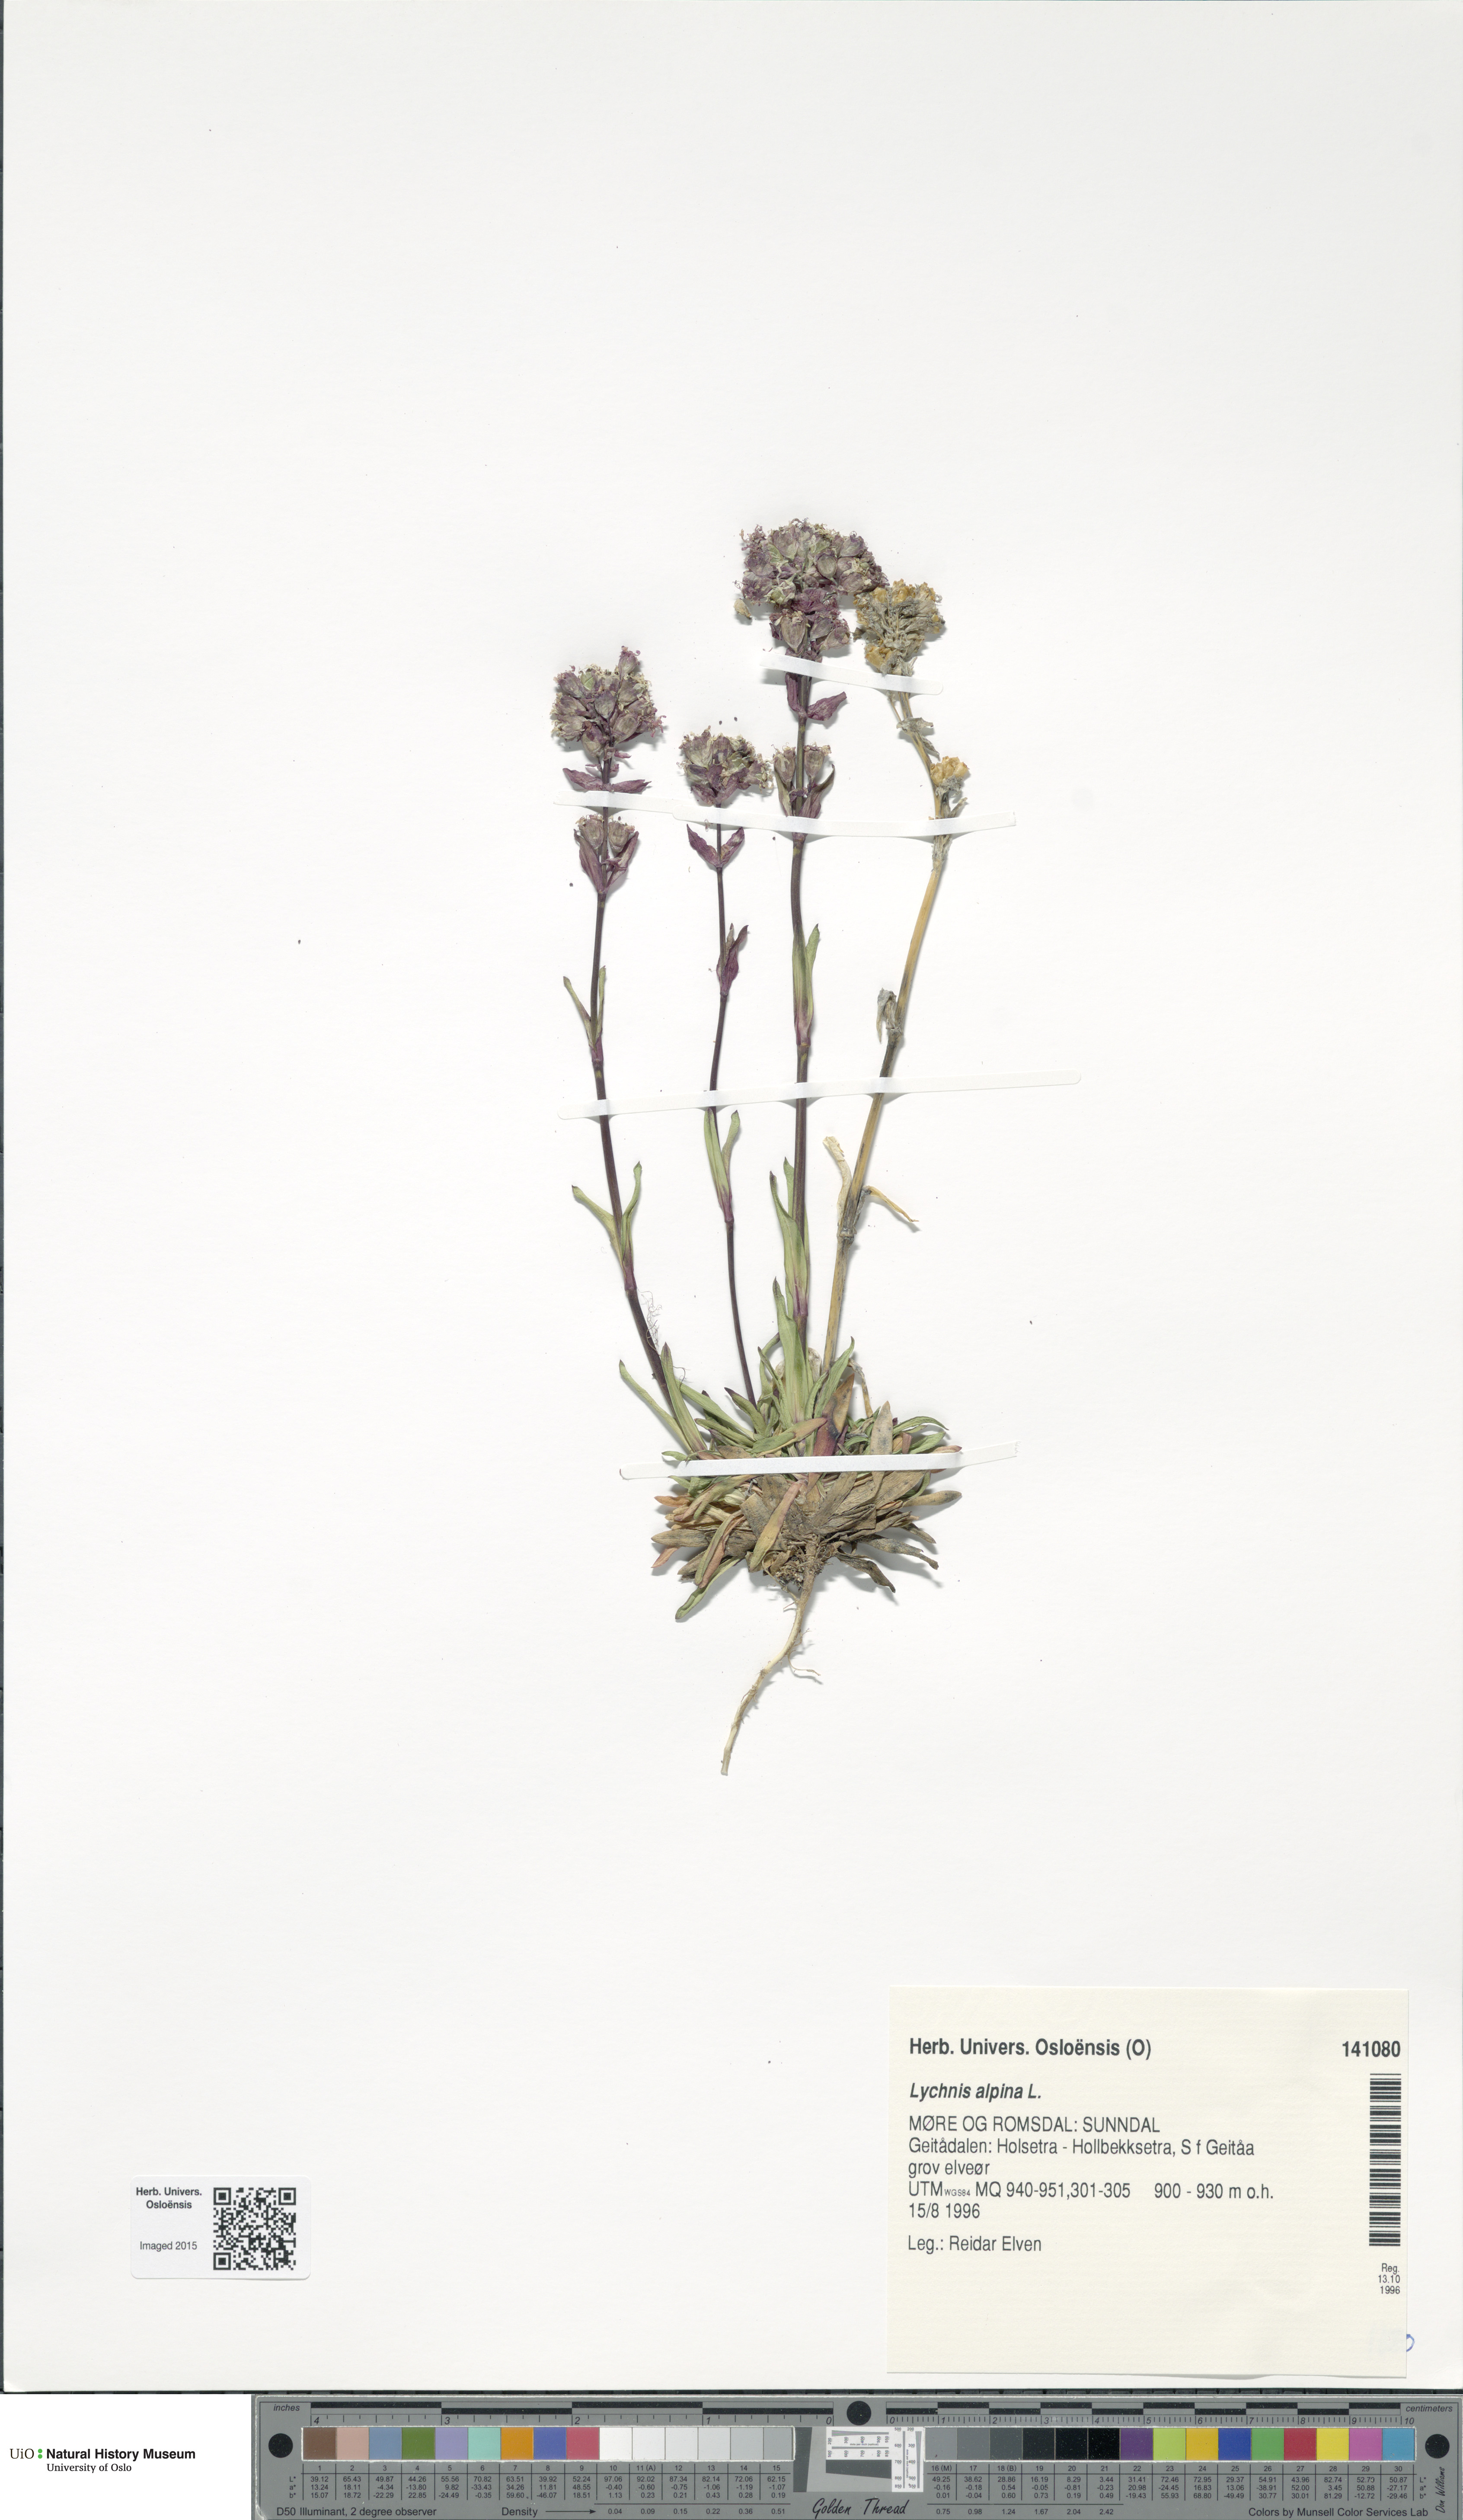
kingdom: Plantae
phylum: Tracheophyta
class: Magnoliopsida
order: Caryophyllales
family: Caryophyllaceae
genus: Viscaria
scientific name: Viscaria alpina
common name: Alpine campion
